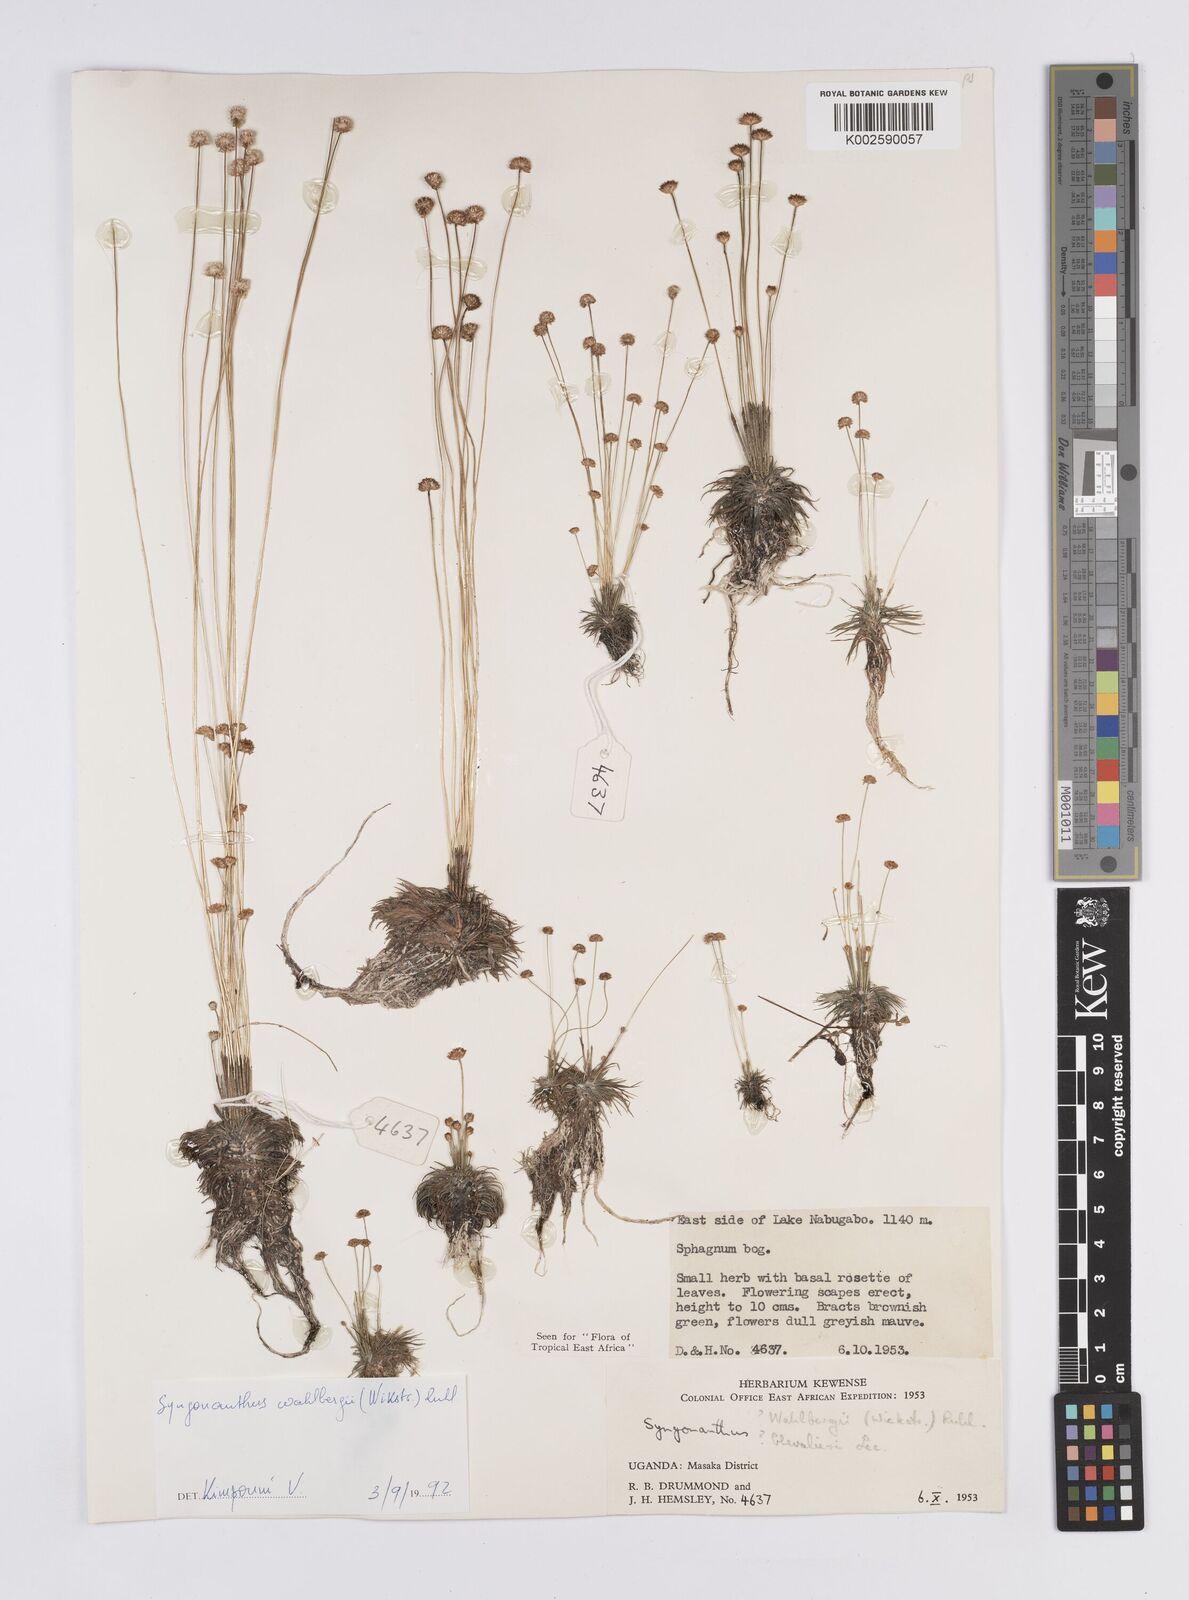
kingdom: Plantae
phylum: Tracheophyta
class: Liliopsida
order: Poales
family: Eriocaulaceae
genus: Syngonanthus
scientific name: Syngonanthus wahlbergii
